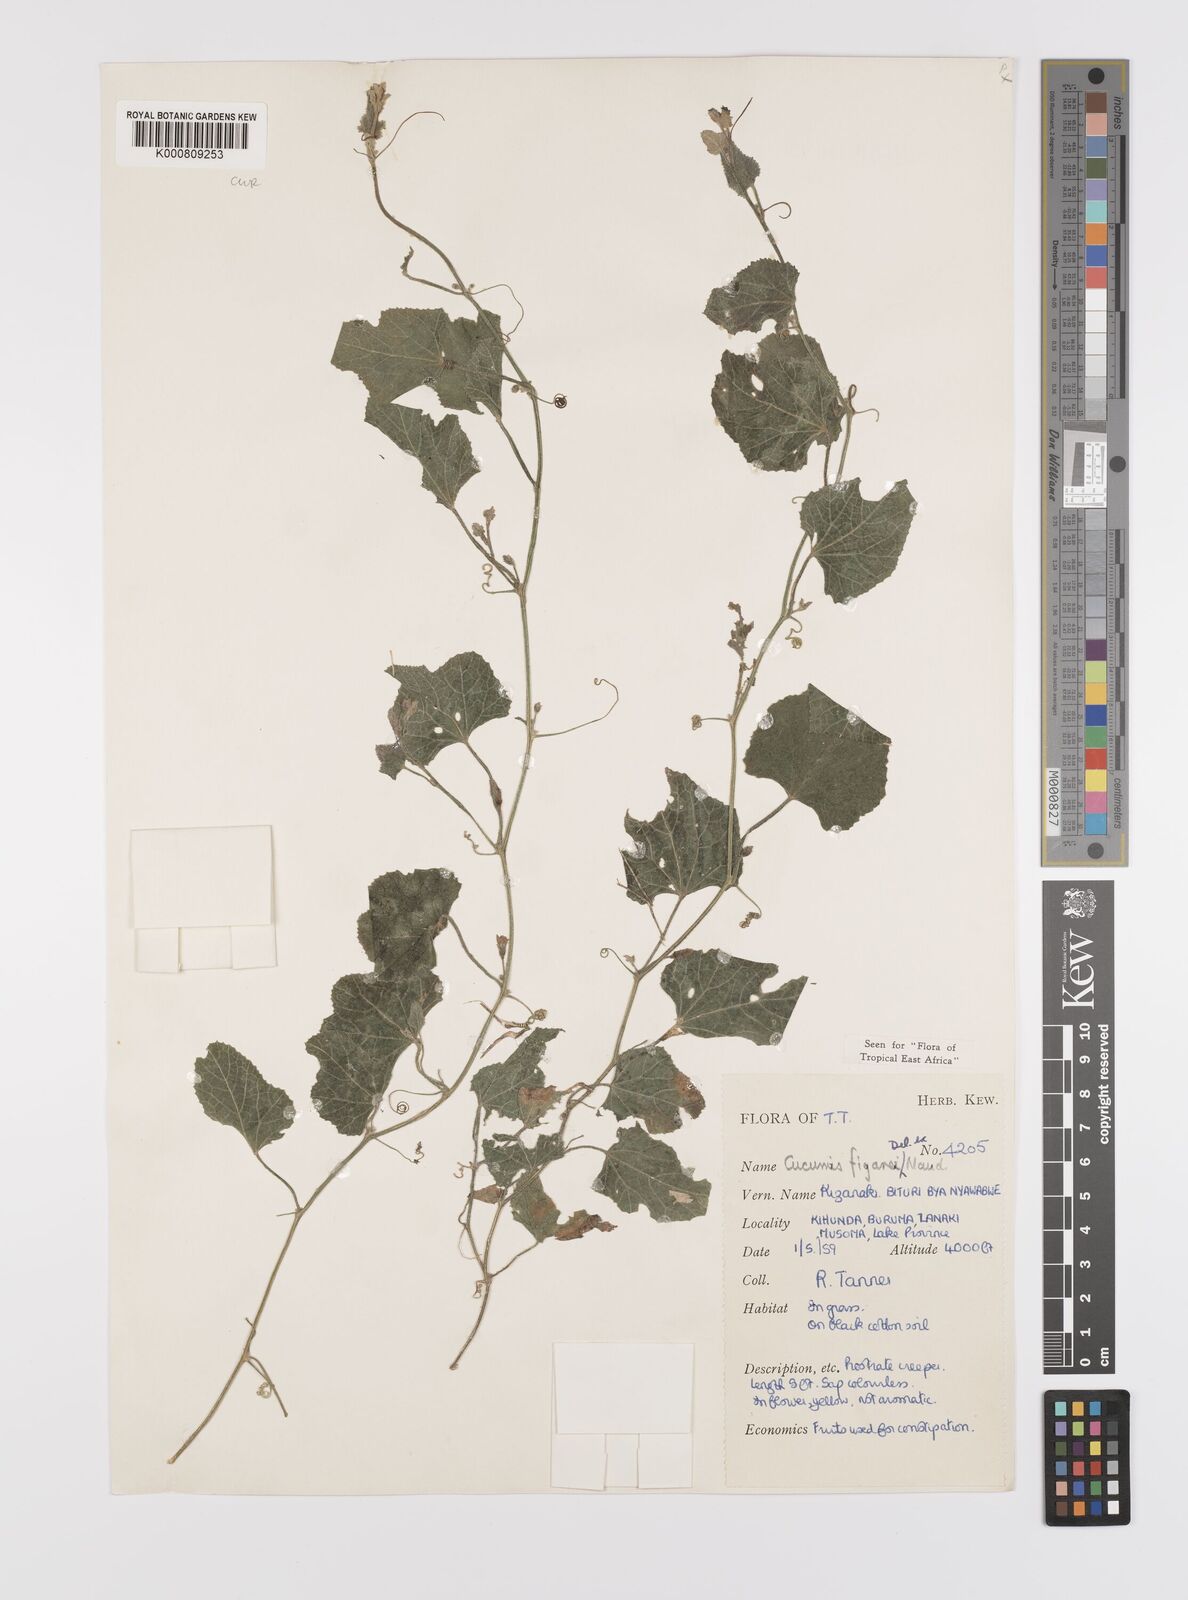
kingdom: Plantae
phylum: Tracheophyta
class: Magnoliopsida
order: Cucurbitales
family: Cucurbitaceae
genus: Cucumis
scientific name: Cucumis
